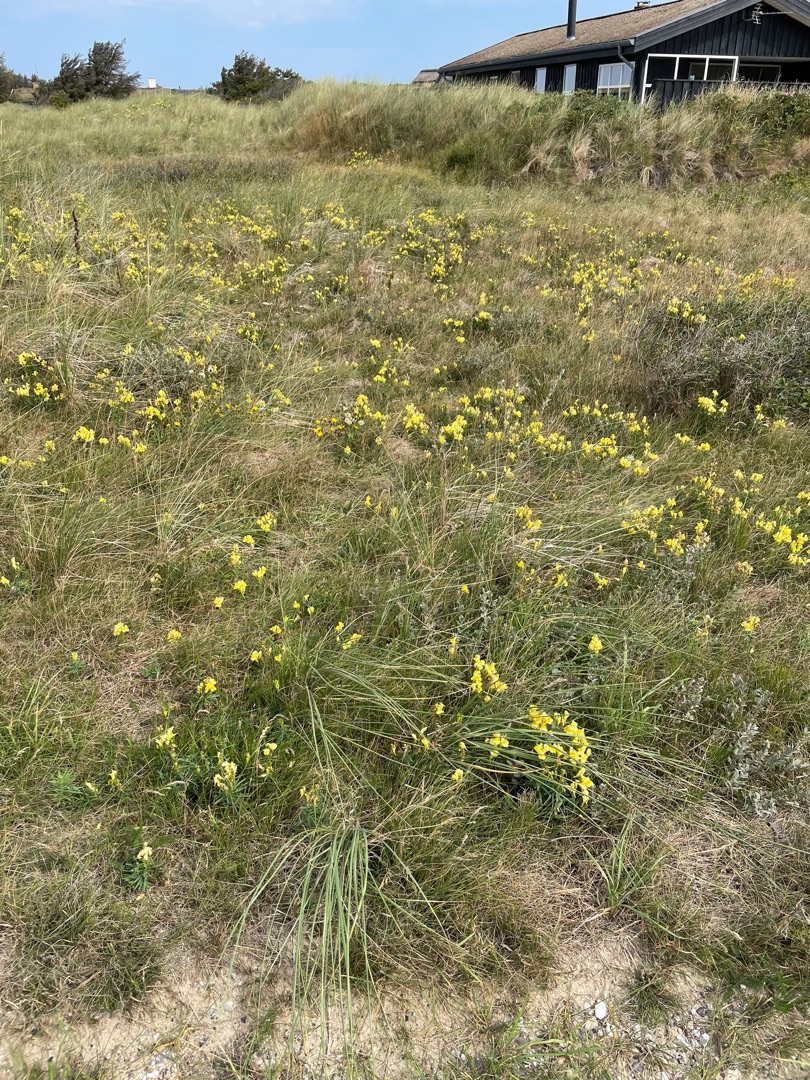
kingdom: Plantae
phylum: Tracheophyta
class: Magnoliopsida
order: Lamiales
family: Plantaginaceae
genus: Linaria
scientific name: Linaria vulgaris
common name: Almindelig torskemund
